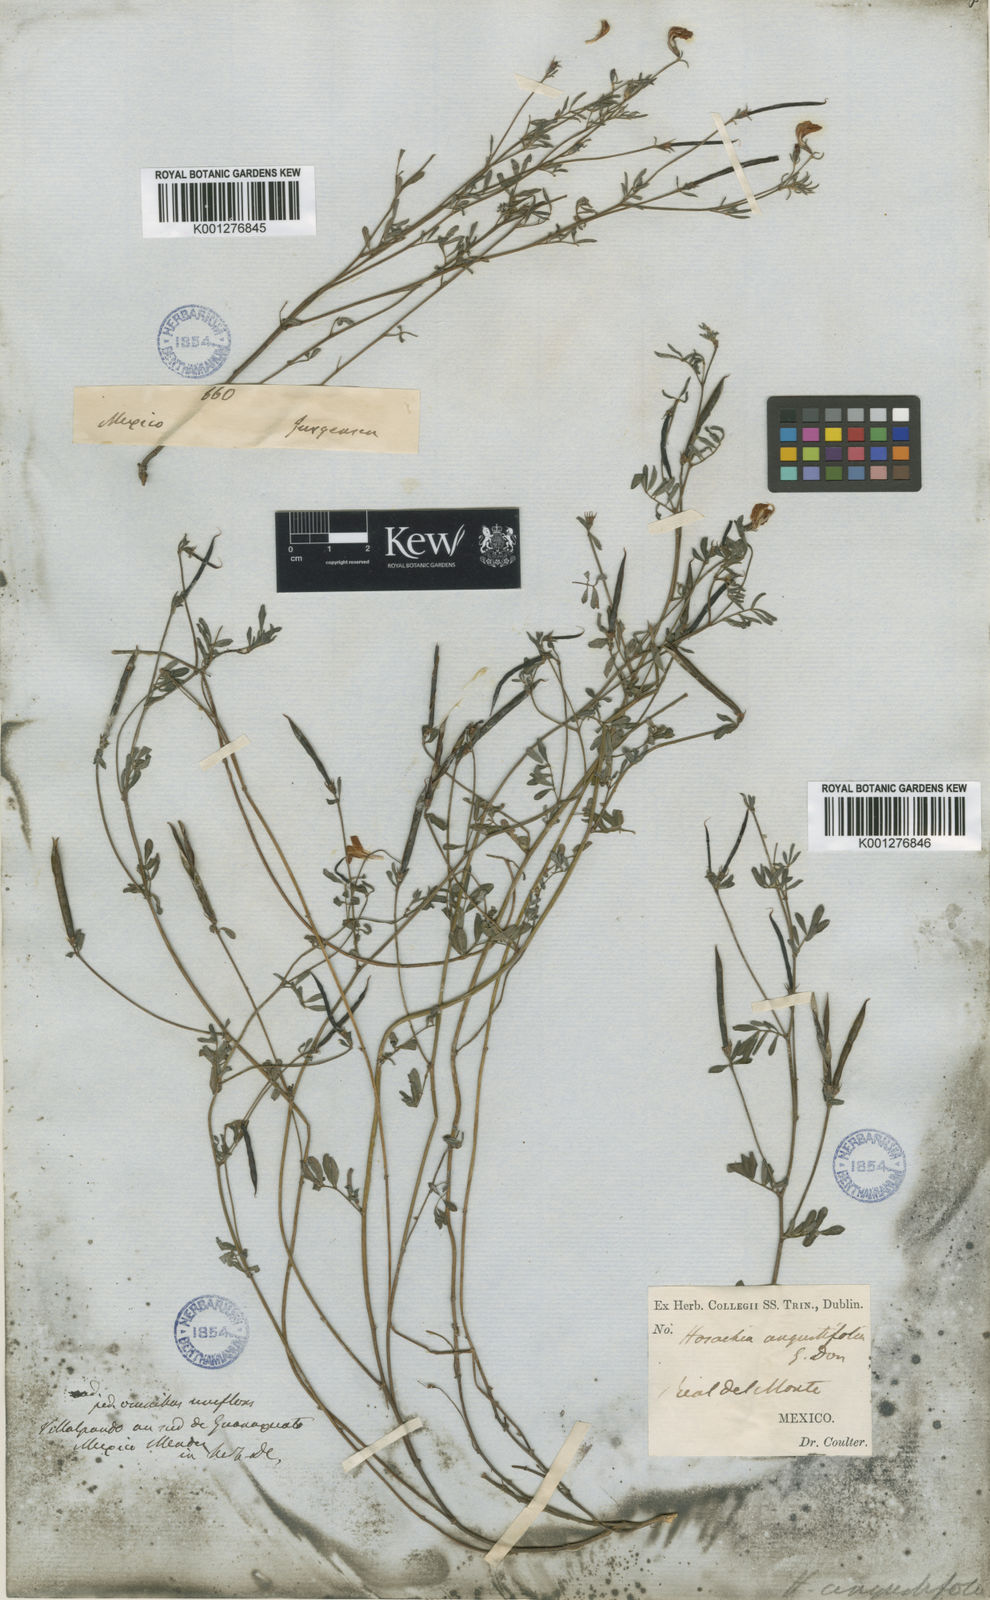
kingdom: Plantae
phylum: Tracheophyta
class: Magnoliopsida
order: Fabales
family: Fabaceae
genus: Lotus
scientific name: Lotus angustissimus
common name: Slender bird's-foot trefoil
